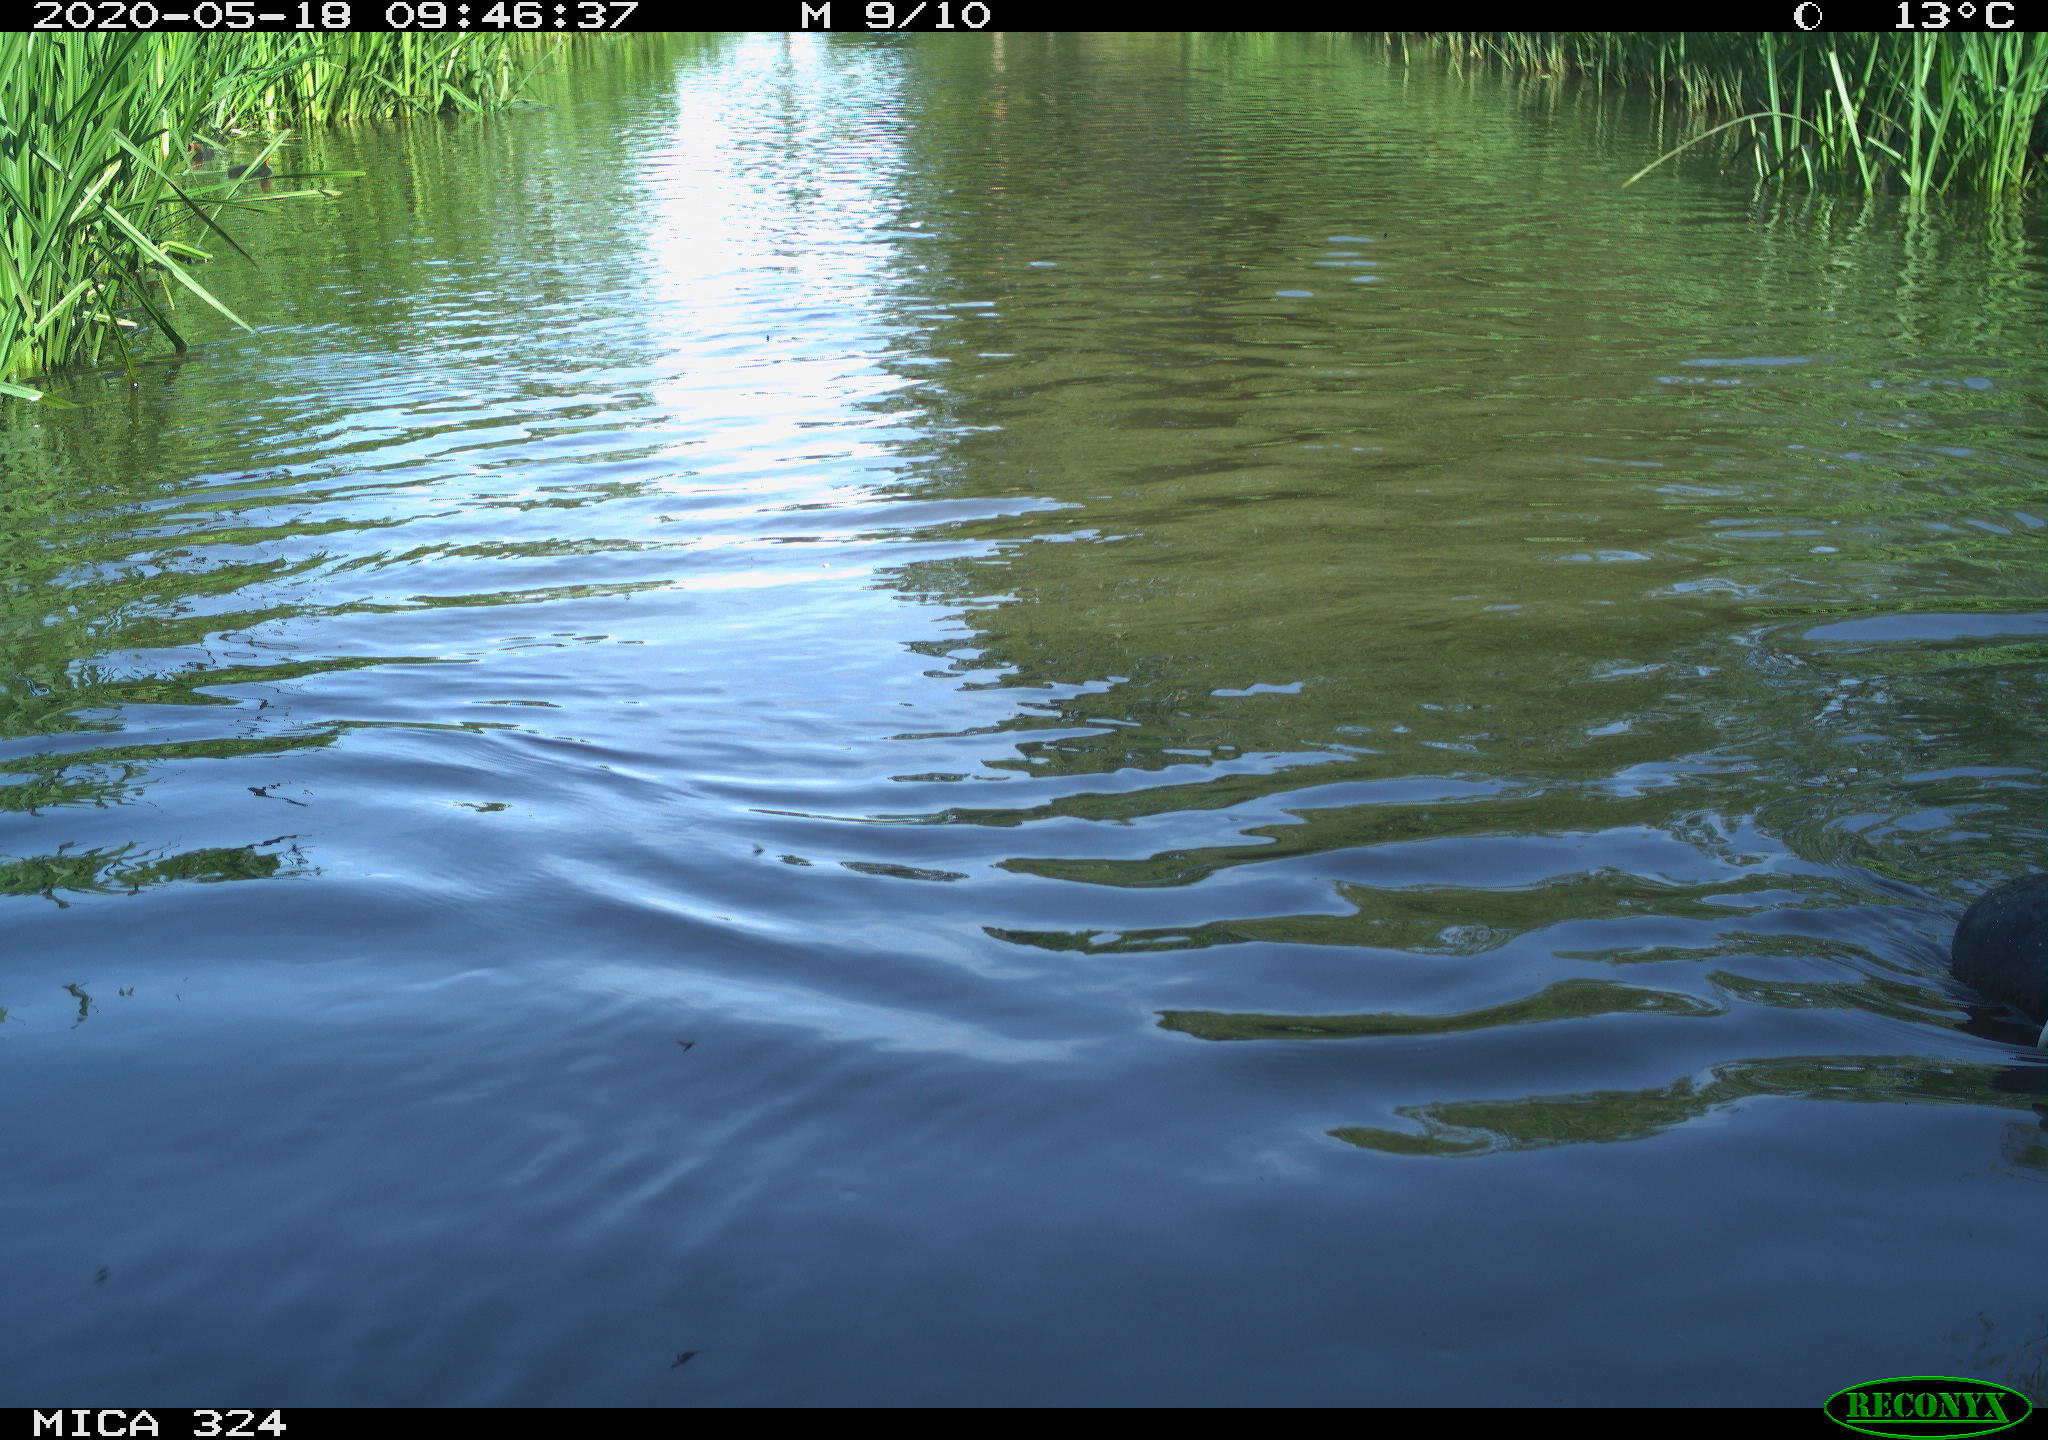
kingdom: Animalia
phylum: Chordata
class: Aves
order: Gruiformes
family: Rallidae
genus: Gallinula
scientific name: Gallinula chloropus
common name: Common moorhen
